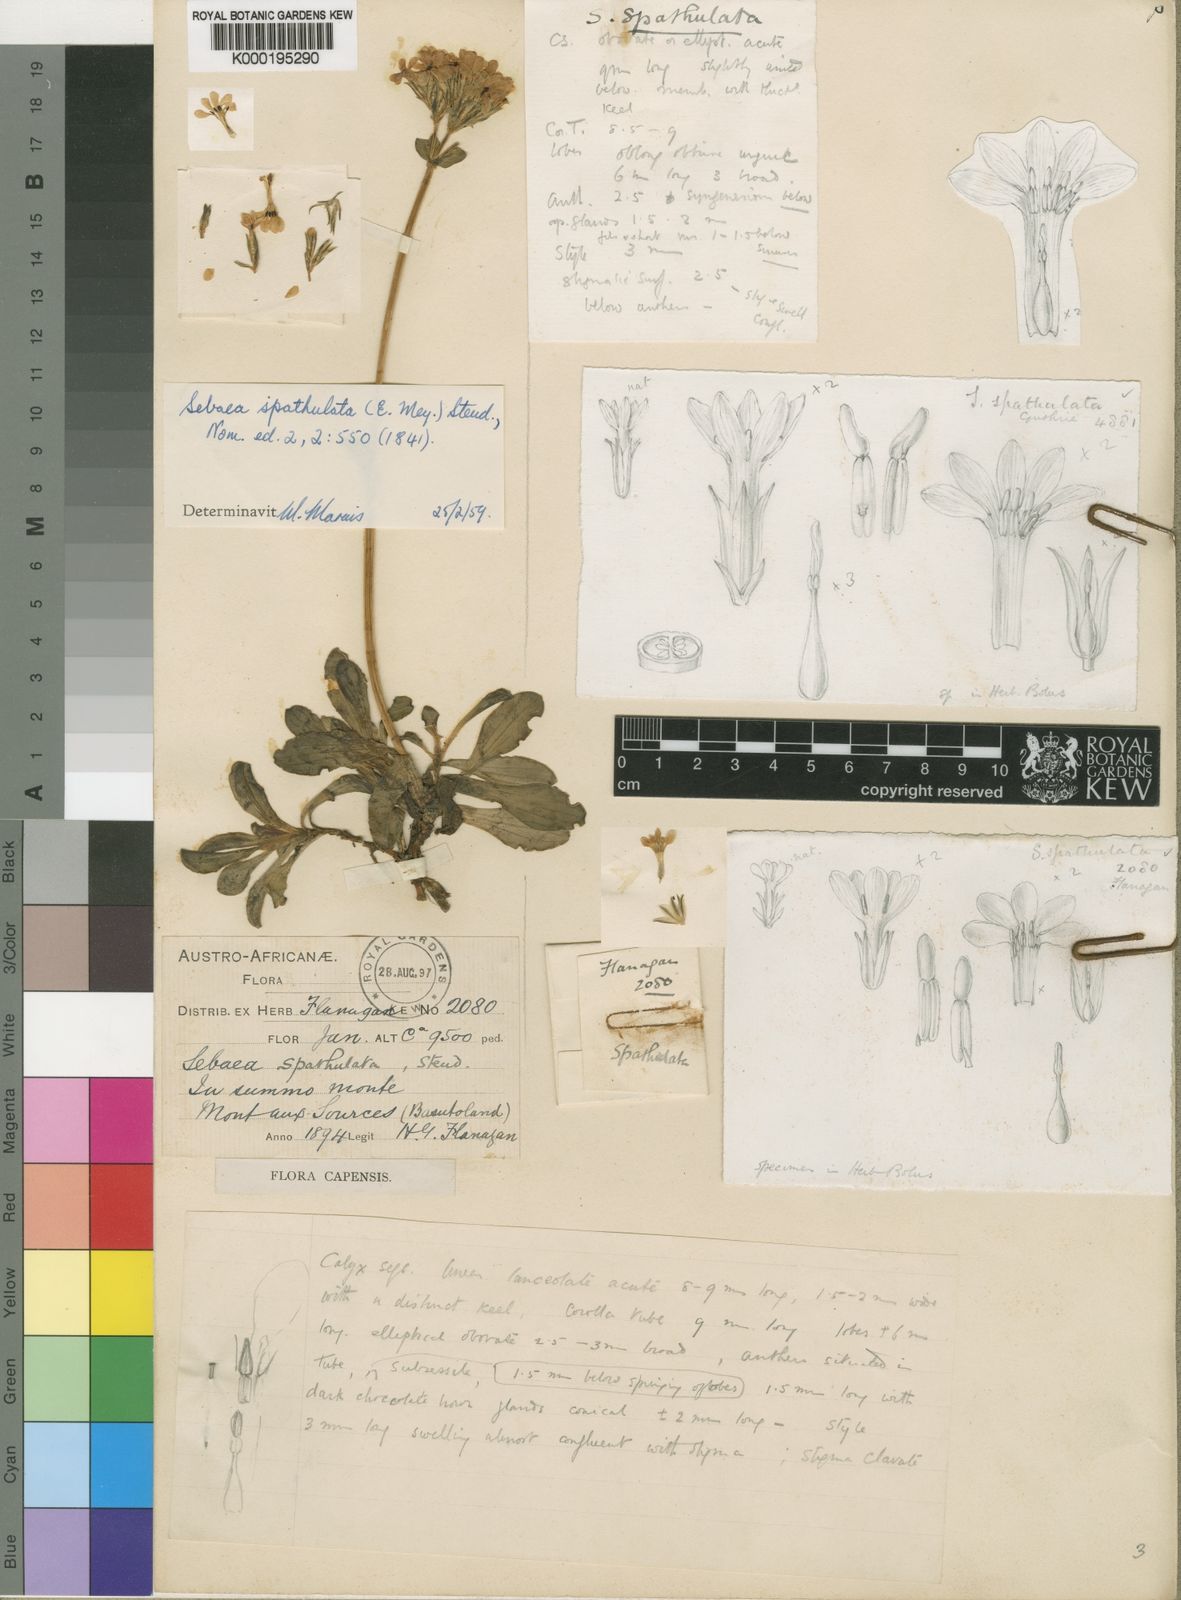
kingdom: Plantae
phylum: Tracheophyta
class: Magnoliopsida
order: Gentianales
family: Gentianaceae
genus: Sebaea
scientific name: Sebaea spathulata
